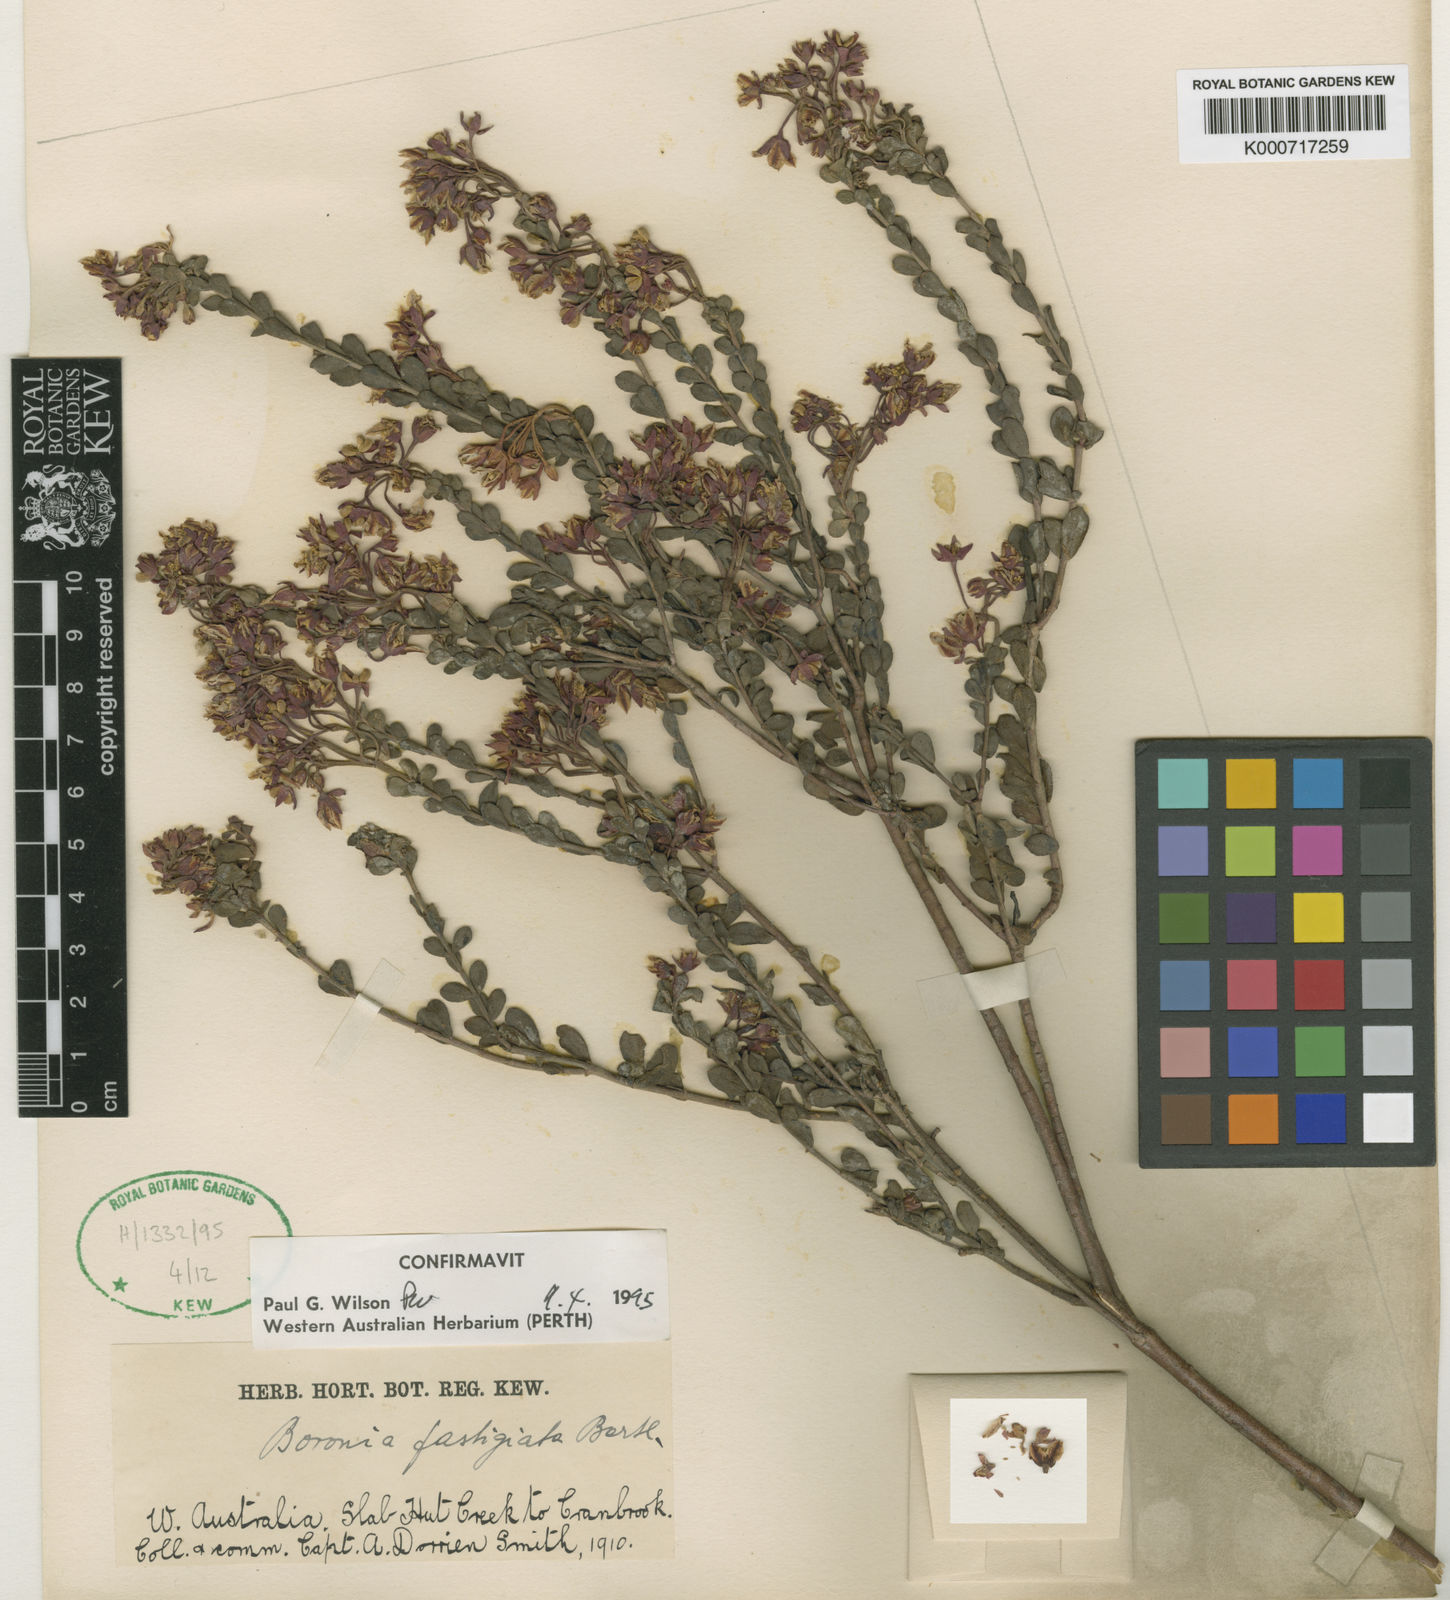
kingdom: Plantae
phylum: Tracheophyta
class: Magnoliopsida
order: Sapindales
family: Rutaceae
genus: Boronia
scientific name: Boronia fastigiata
